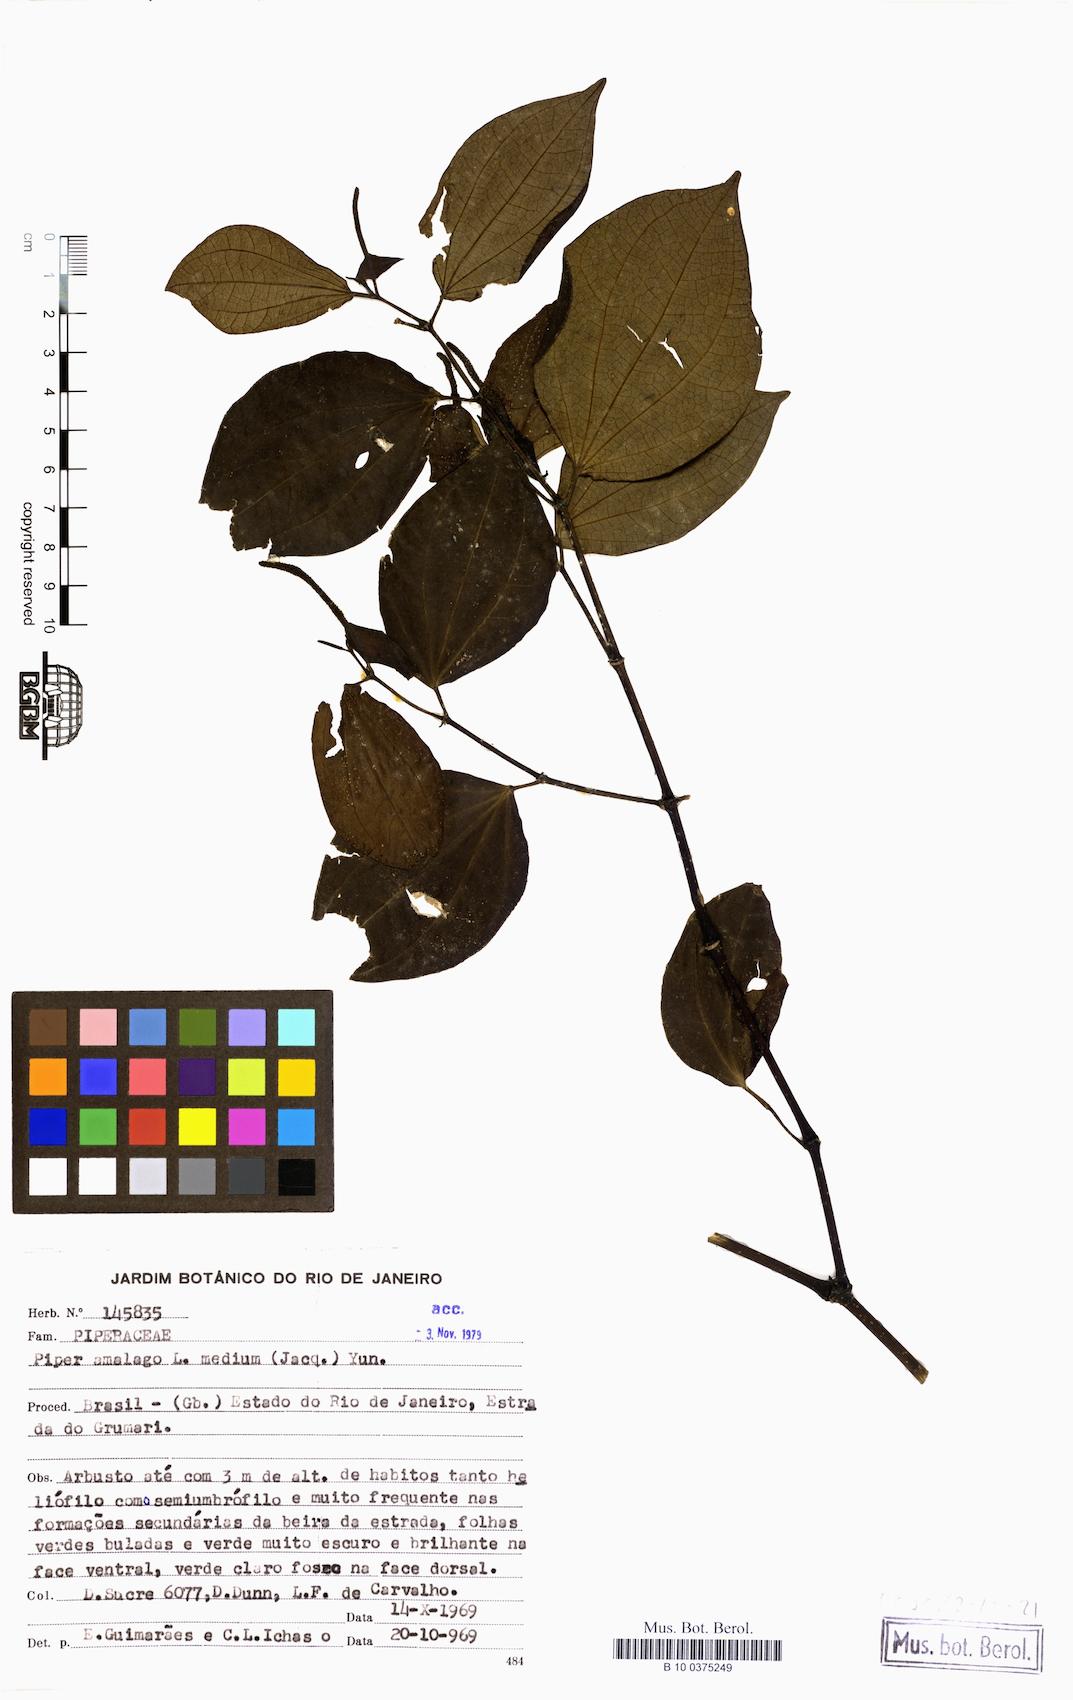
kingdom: Plantae
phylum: Tracheophyta
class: Magnoliopsida
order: Piperales
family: Piperaceae
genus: Piper
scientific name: Piper amalago
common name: Pepper-elder
